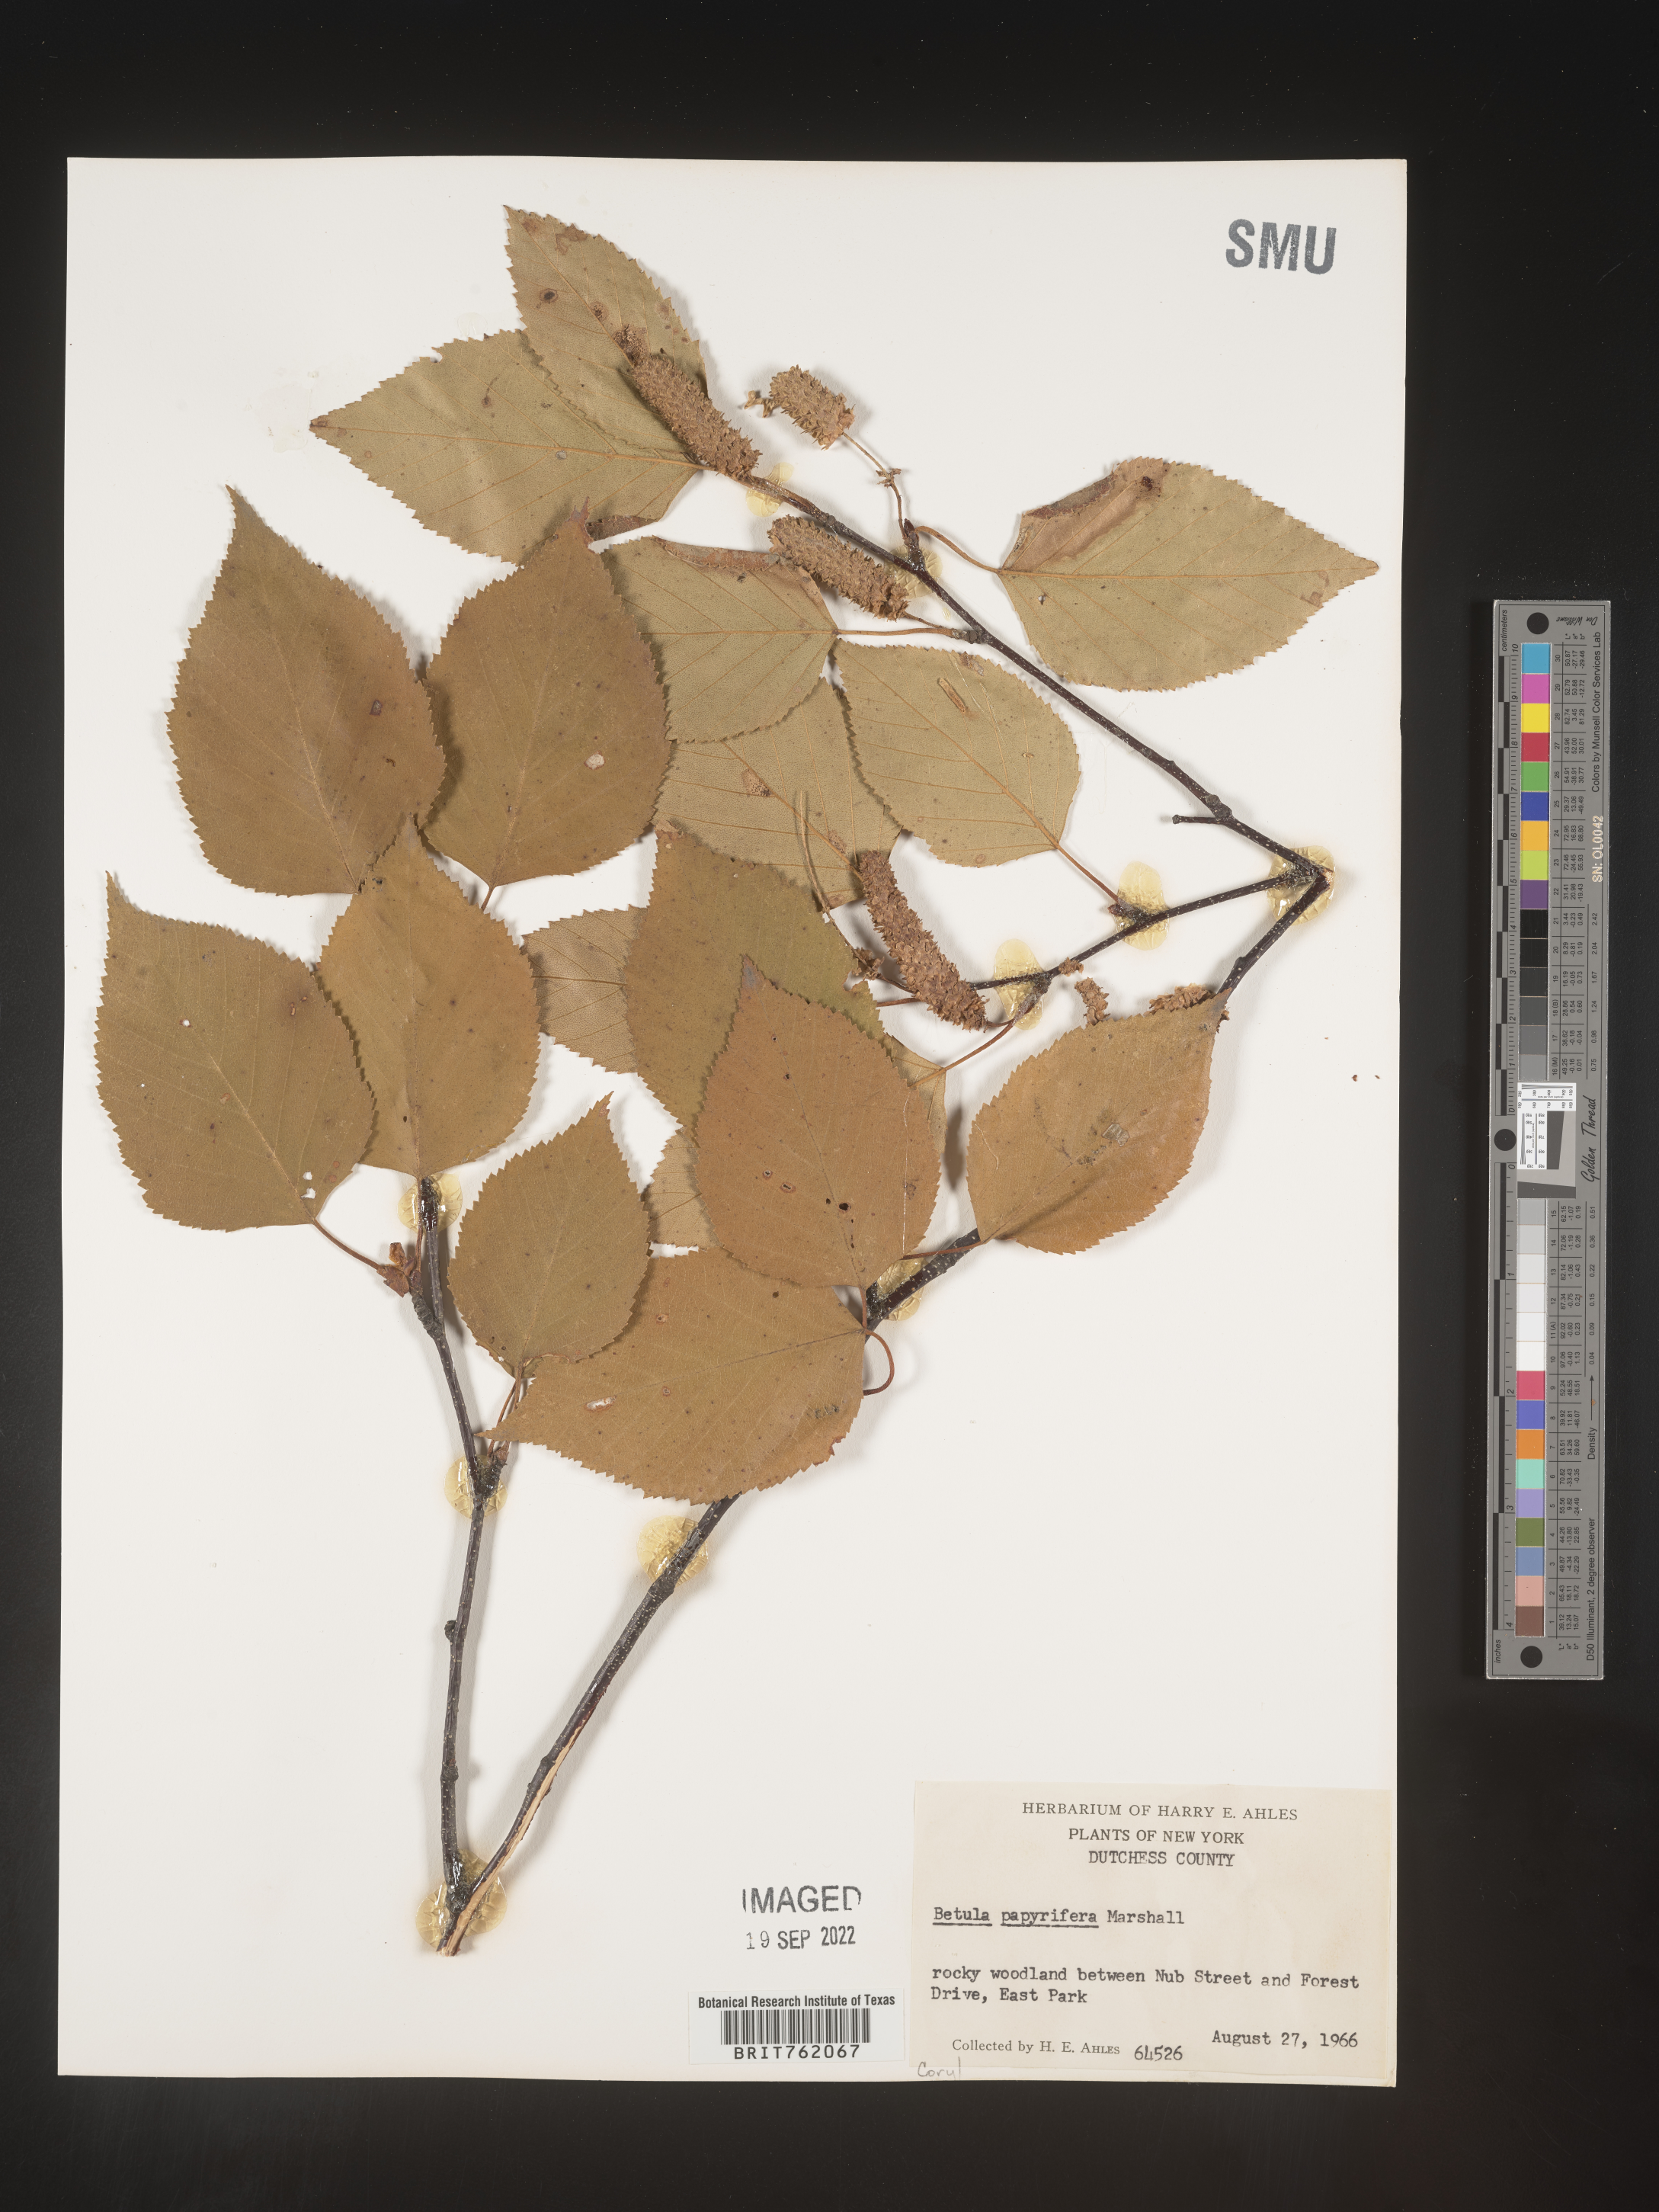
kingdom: Plantae
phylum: Tracheophyta
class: Magnoliopsida
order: Fagales
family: Betulaceae
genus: Betula
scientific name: Betula papyrifera
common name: Paper birch
